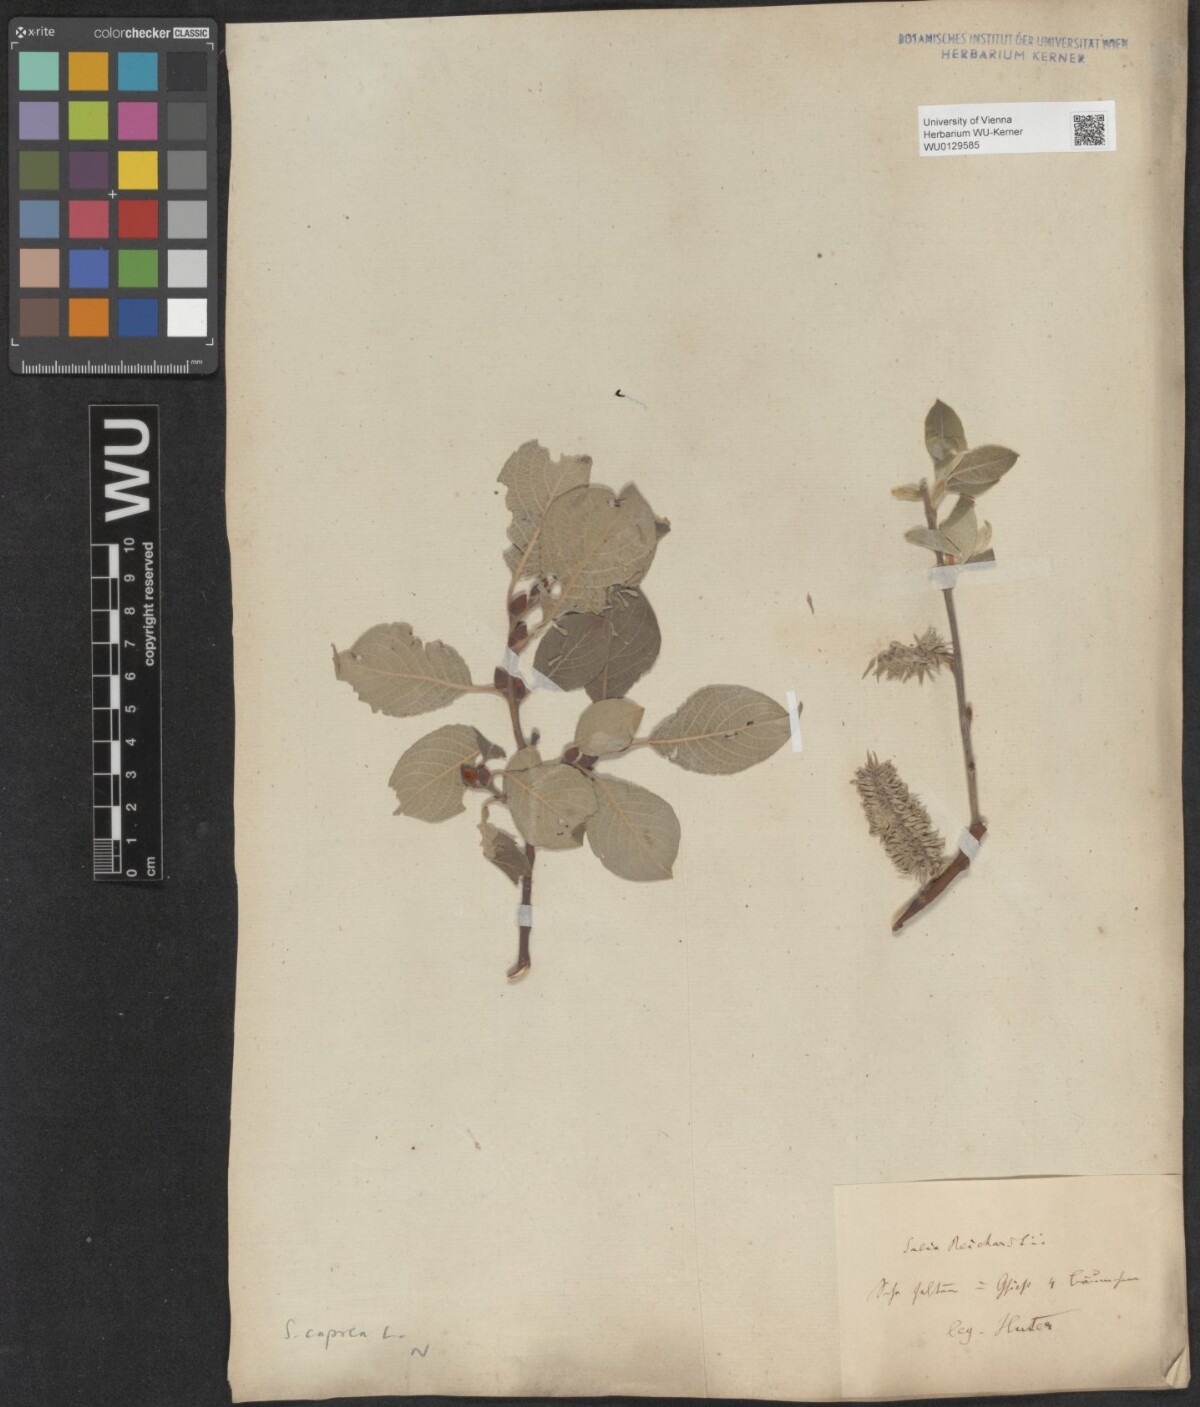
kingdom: Plantae
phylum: Tracheophyta
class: Magnoliopsida
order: Malpighiales
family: Salicaceae
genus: Salix
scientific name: Salix caprea
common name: Goat willow
